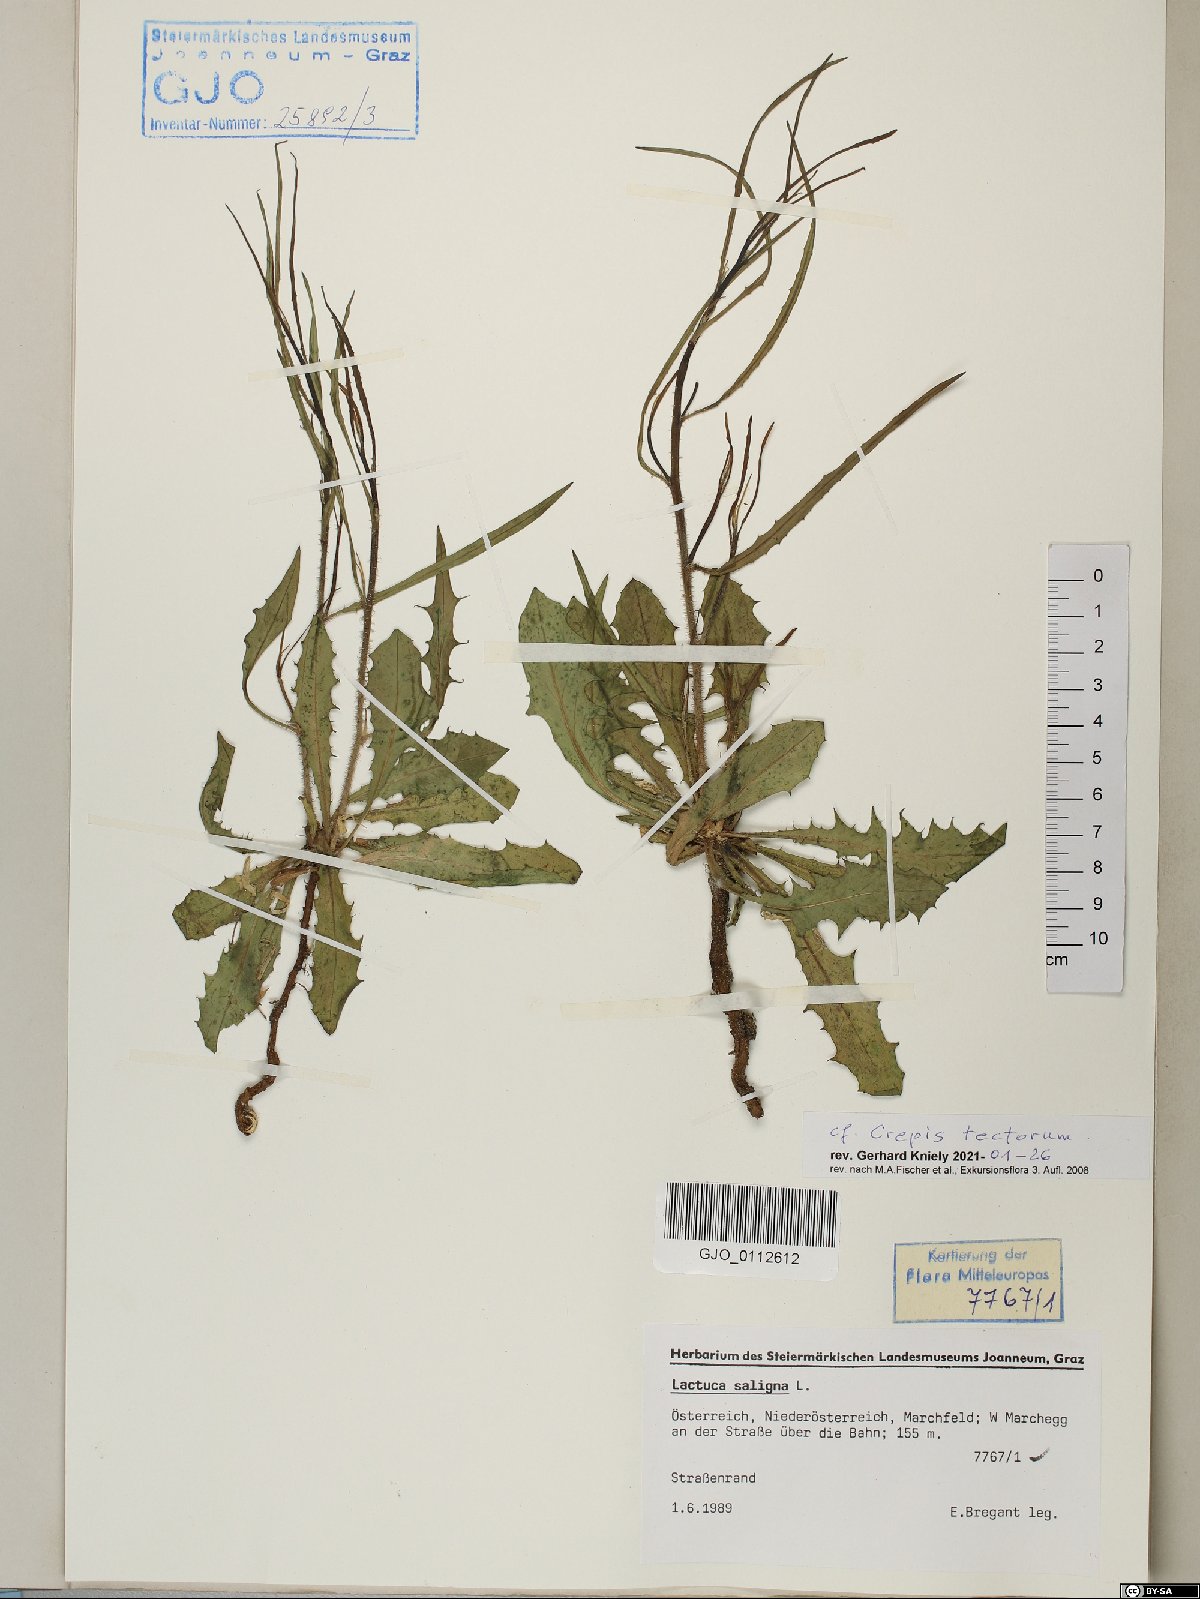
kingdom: Plantae
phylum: Tracheophyta
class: Magnoliopsida
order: Asterales
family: Asteraceae
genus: Crepis
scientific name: Crepis tectorum
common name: Narrow-leaved hawk's-beard
